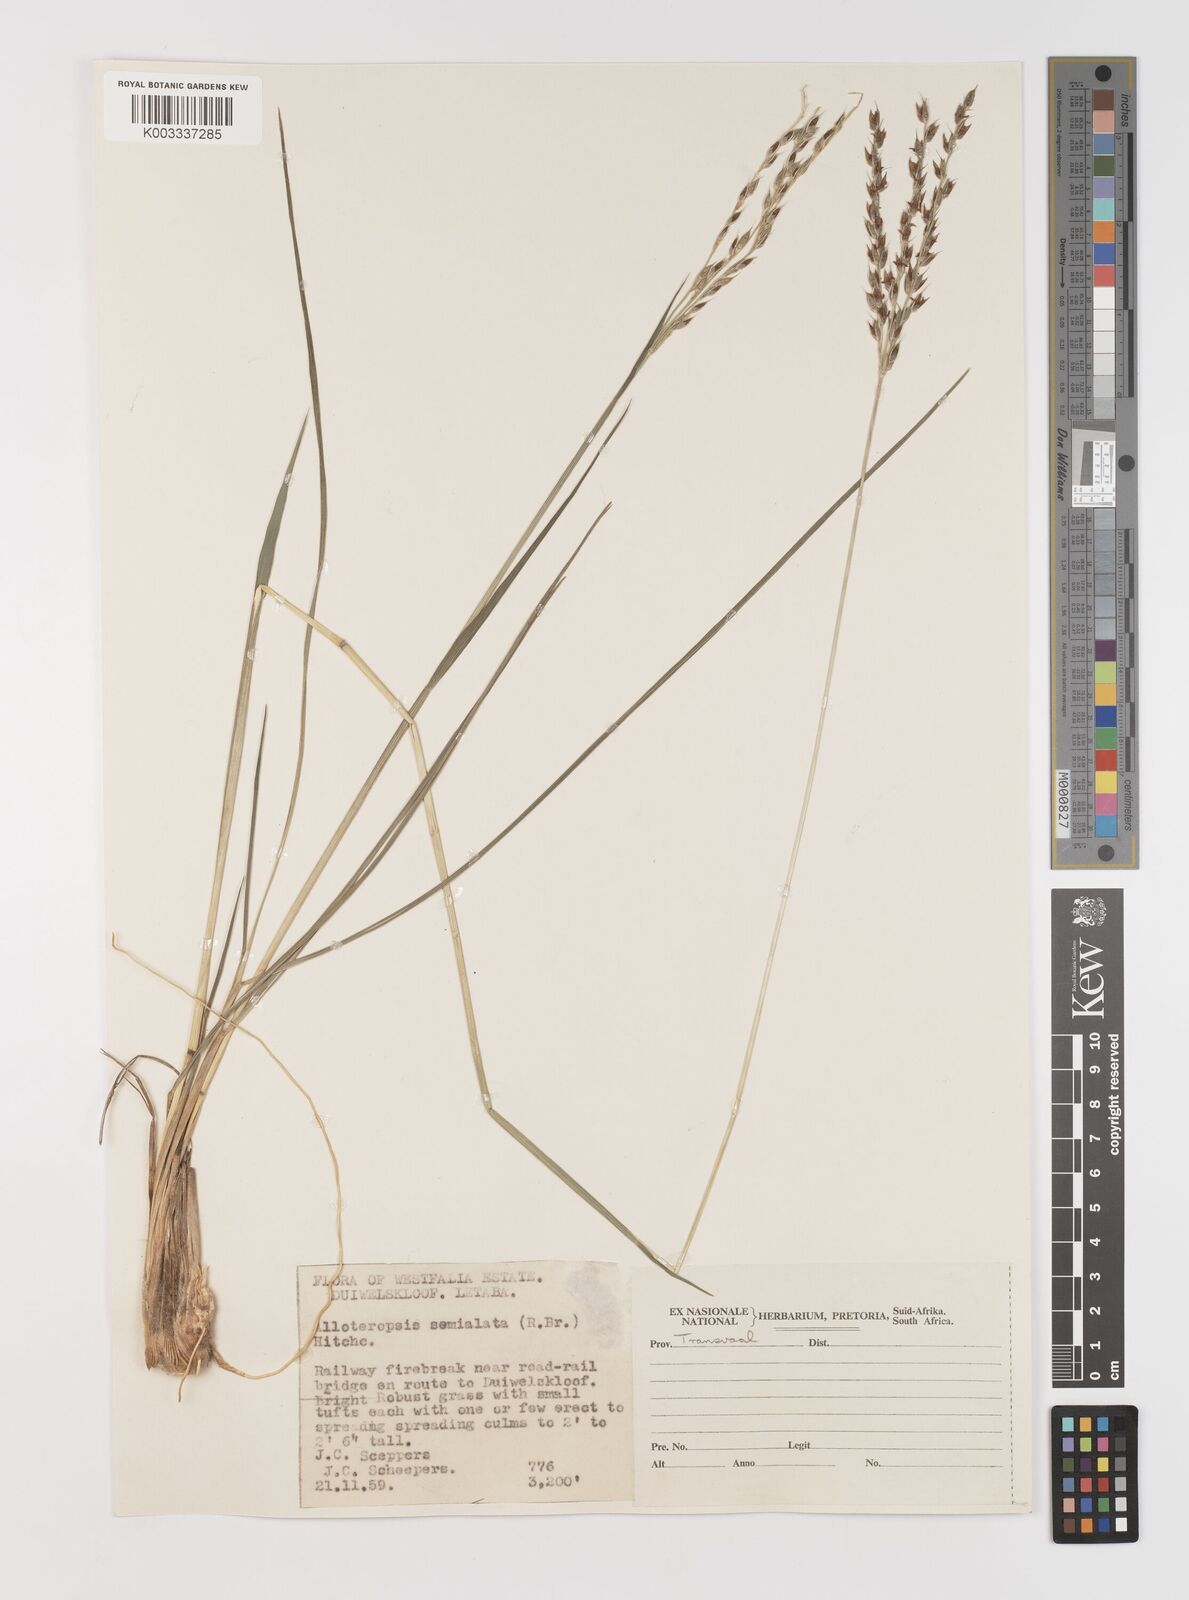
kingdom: Plantae
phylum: Tracheophyta
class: Liliopsida
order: Poales
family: Poaceae
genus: Alloteropsis
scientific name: Alloteropsis semialata
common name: Cockatoo grass
